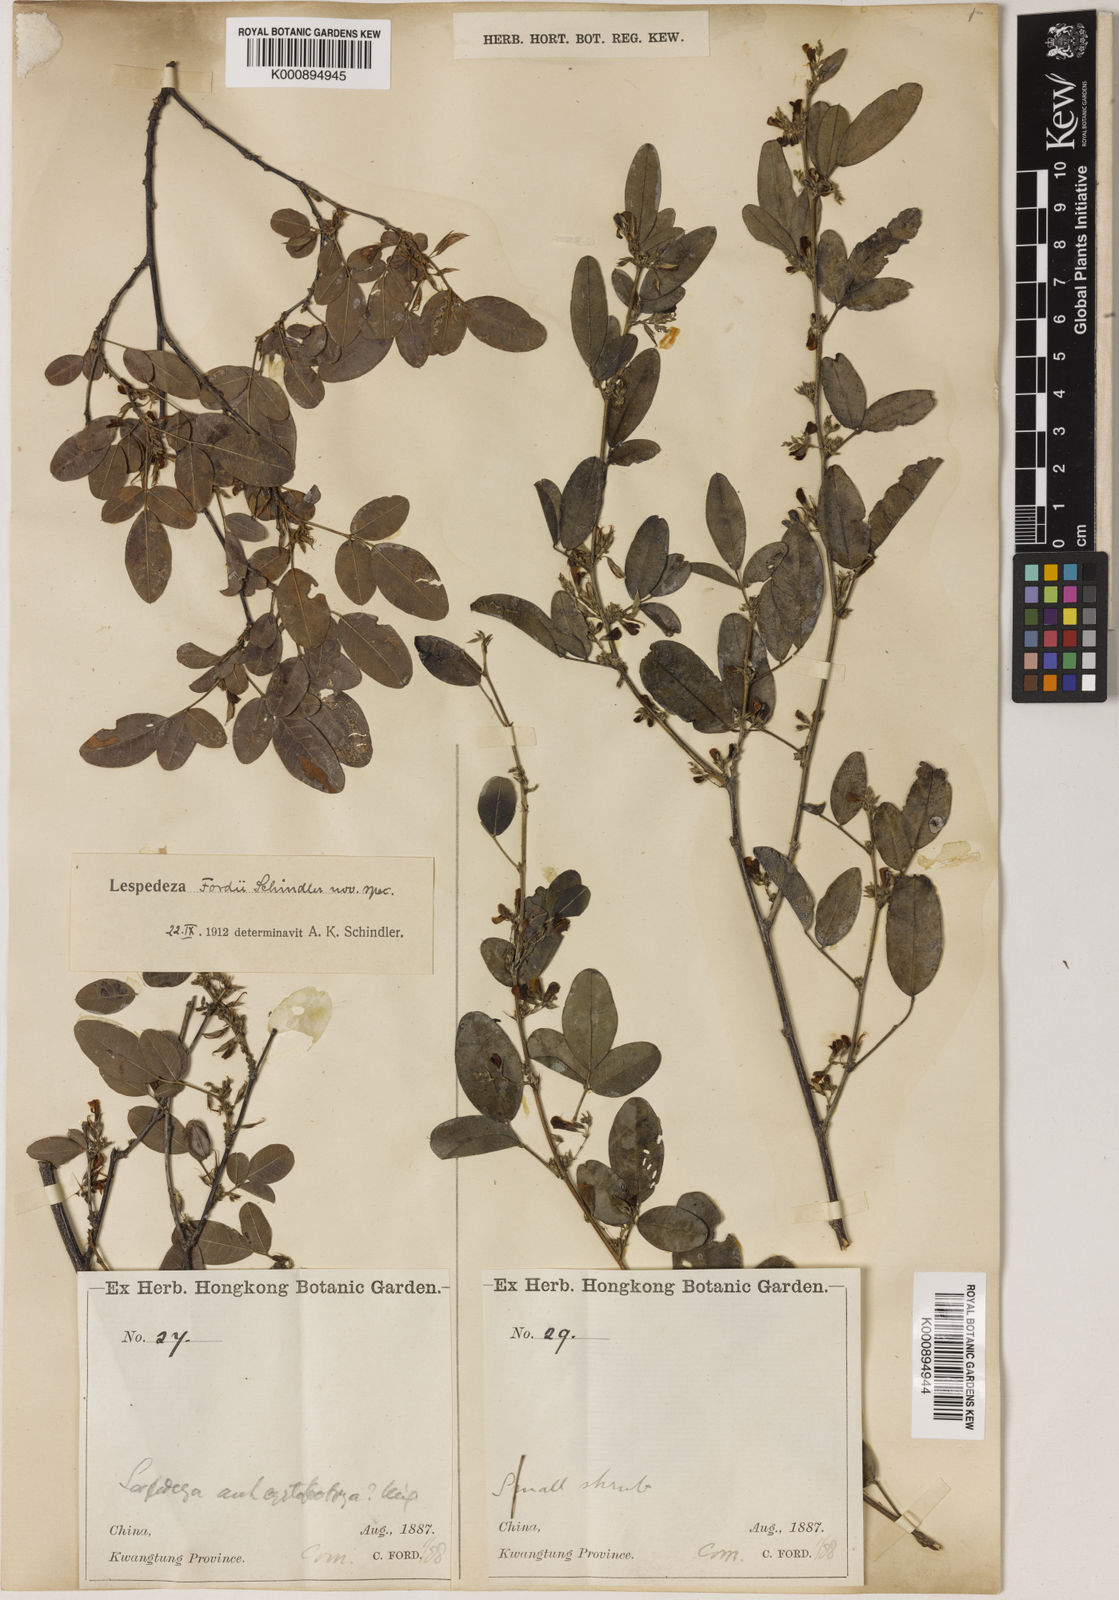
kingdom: Plantae
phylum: Tracheophyta
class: Magnoliopsida
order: Fabales
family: Fabaceae
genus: Lespedeza
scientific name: Lespedeza fordii
